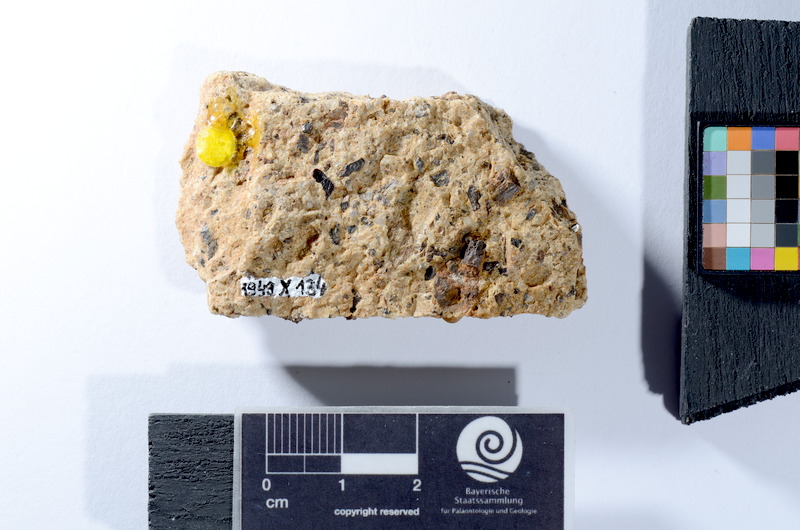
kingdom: Animalia
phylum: Chordata
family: Palaeoniscidae
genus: Gyrolepis
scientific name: Gyrolepis albertii
